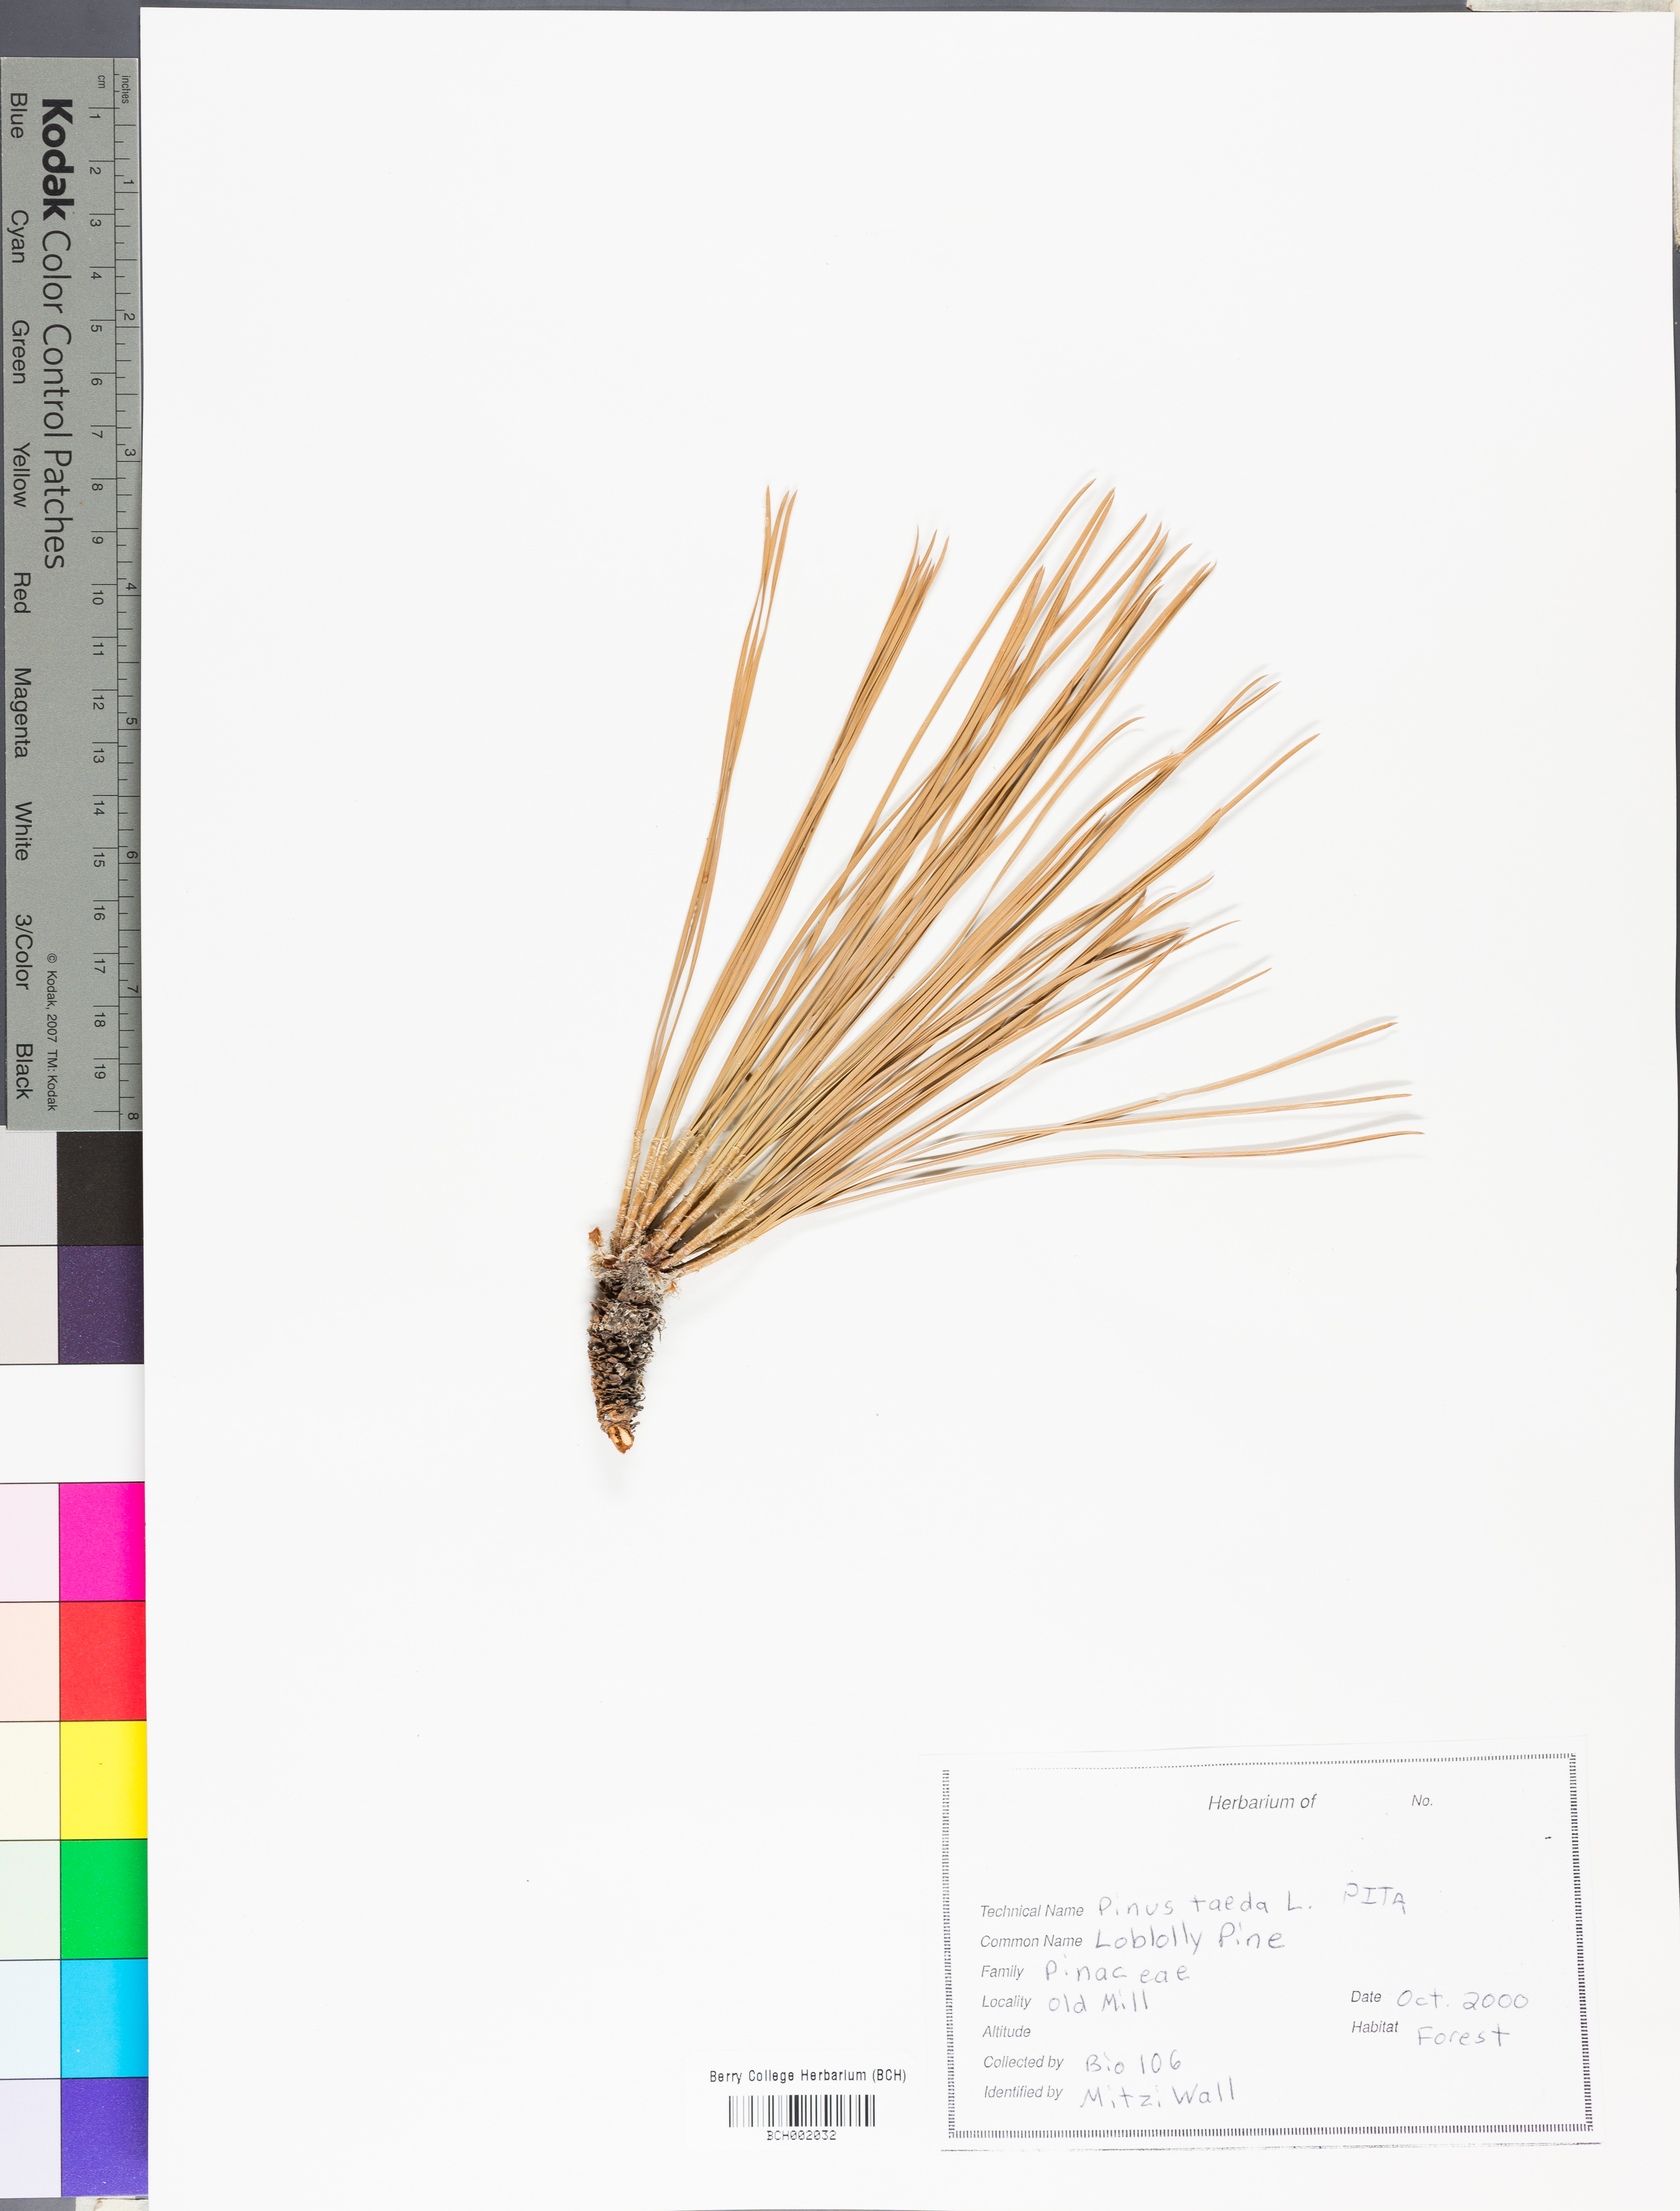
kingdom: Plantae
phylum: Tracheophyta
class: Pinopsida
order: Pinales
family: Pinaceae
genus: Pinus
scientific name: Pinus taeda
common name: Loblolly pine
